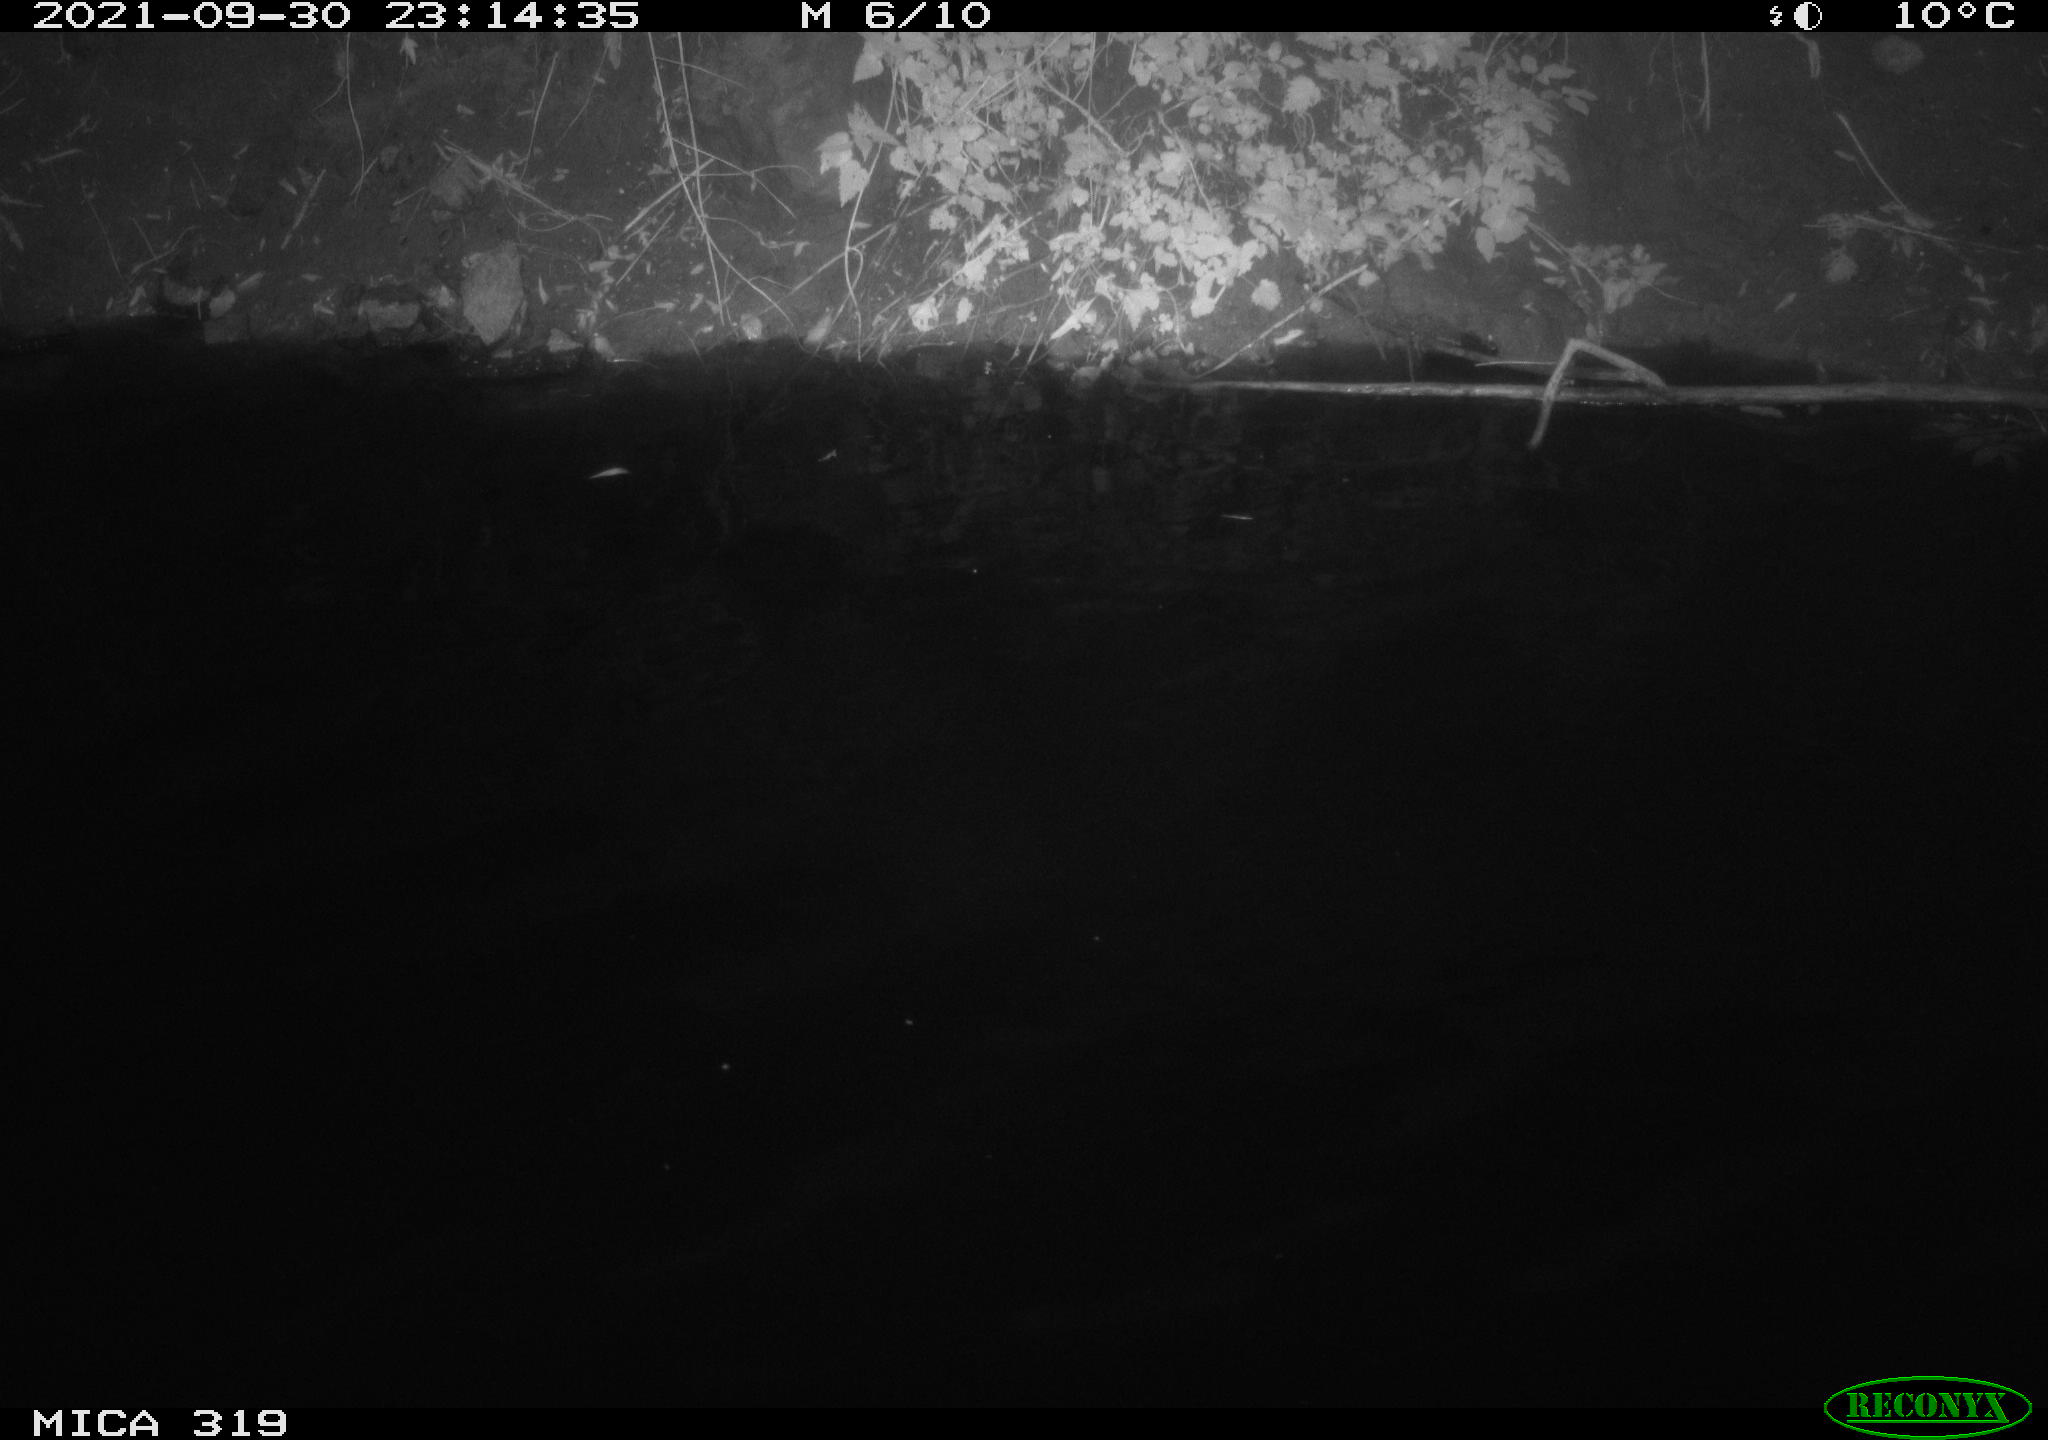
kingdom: Animalia
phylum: Chordata
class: Aves
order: Anseriformes
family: Anatidae
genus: Anas
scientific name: Anas platyrhynchos
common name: Mallard
